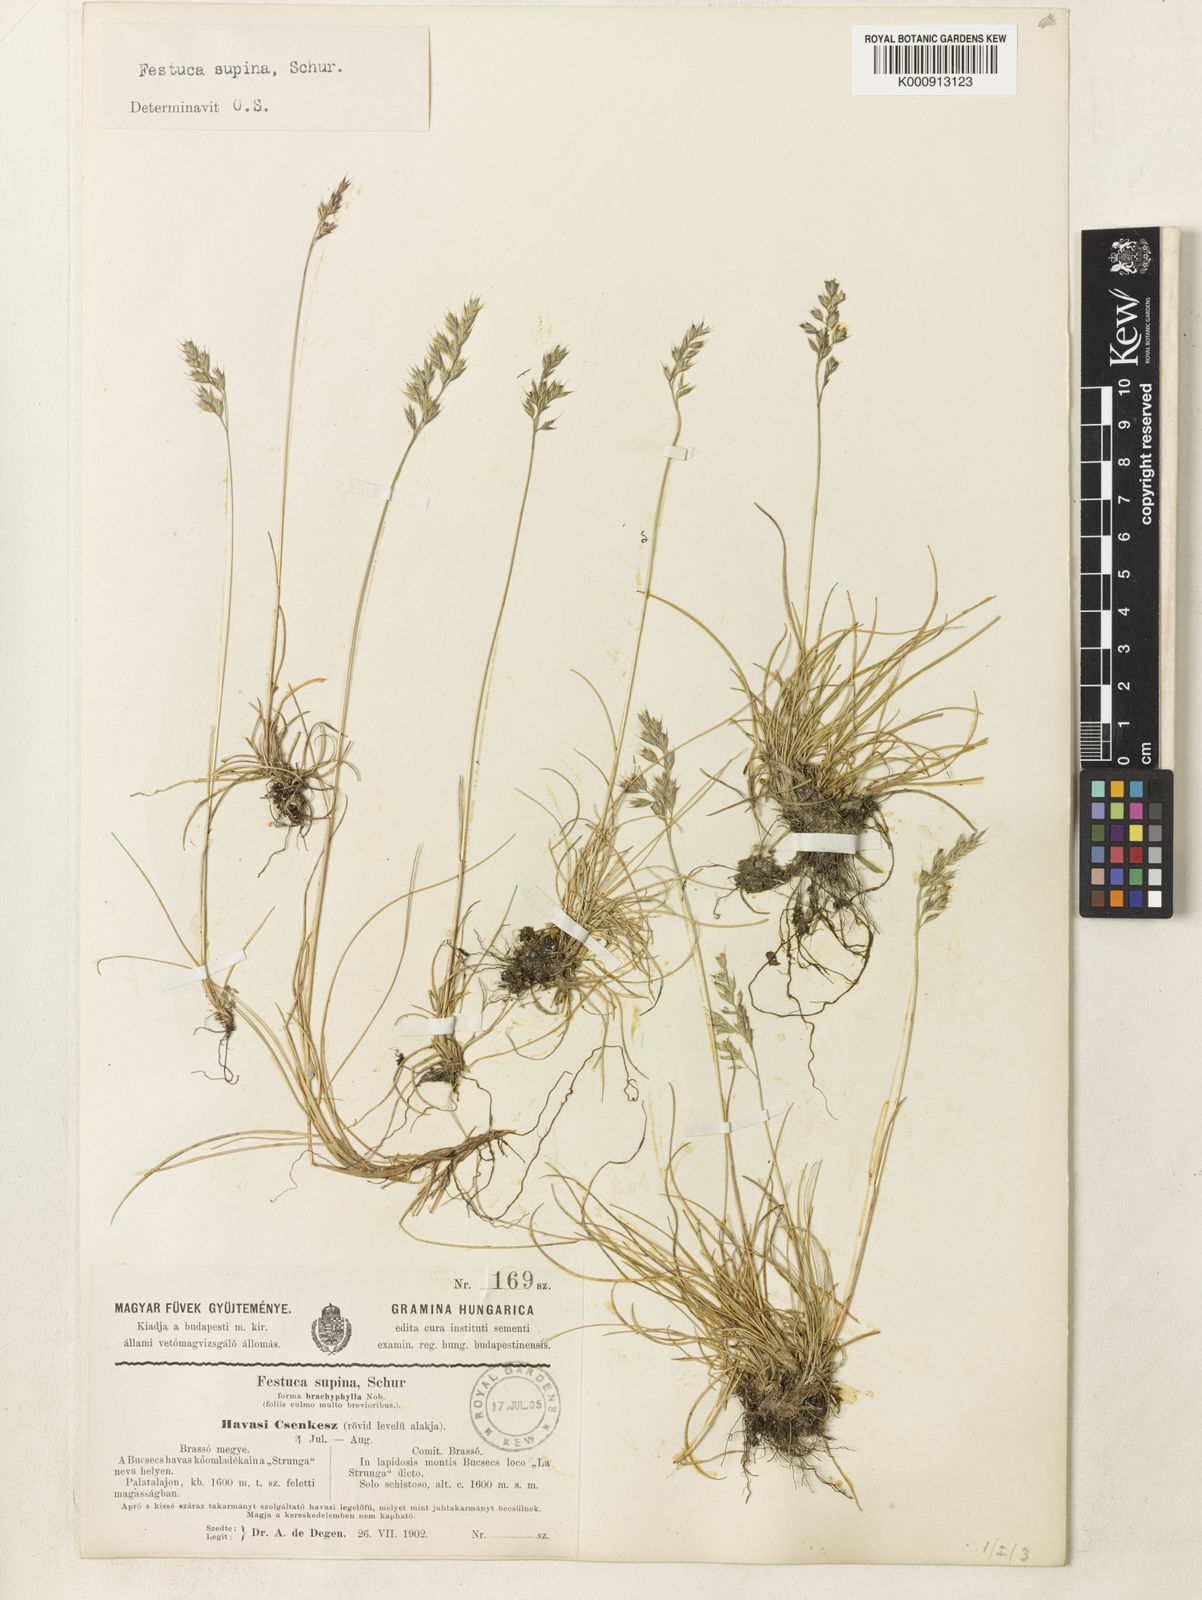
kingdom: Plantae
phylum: Tracheophyta
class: Liliopsida
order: Poales
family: Poaceae
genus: Festuca
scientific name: Festuca airoides
